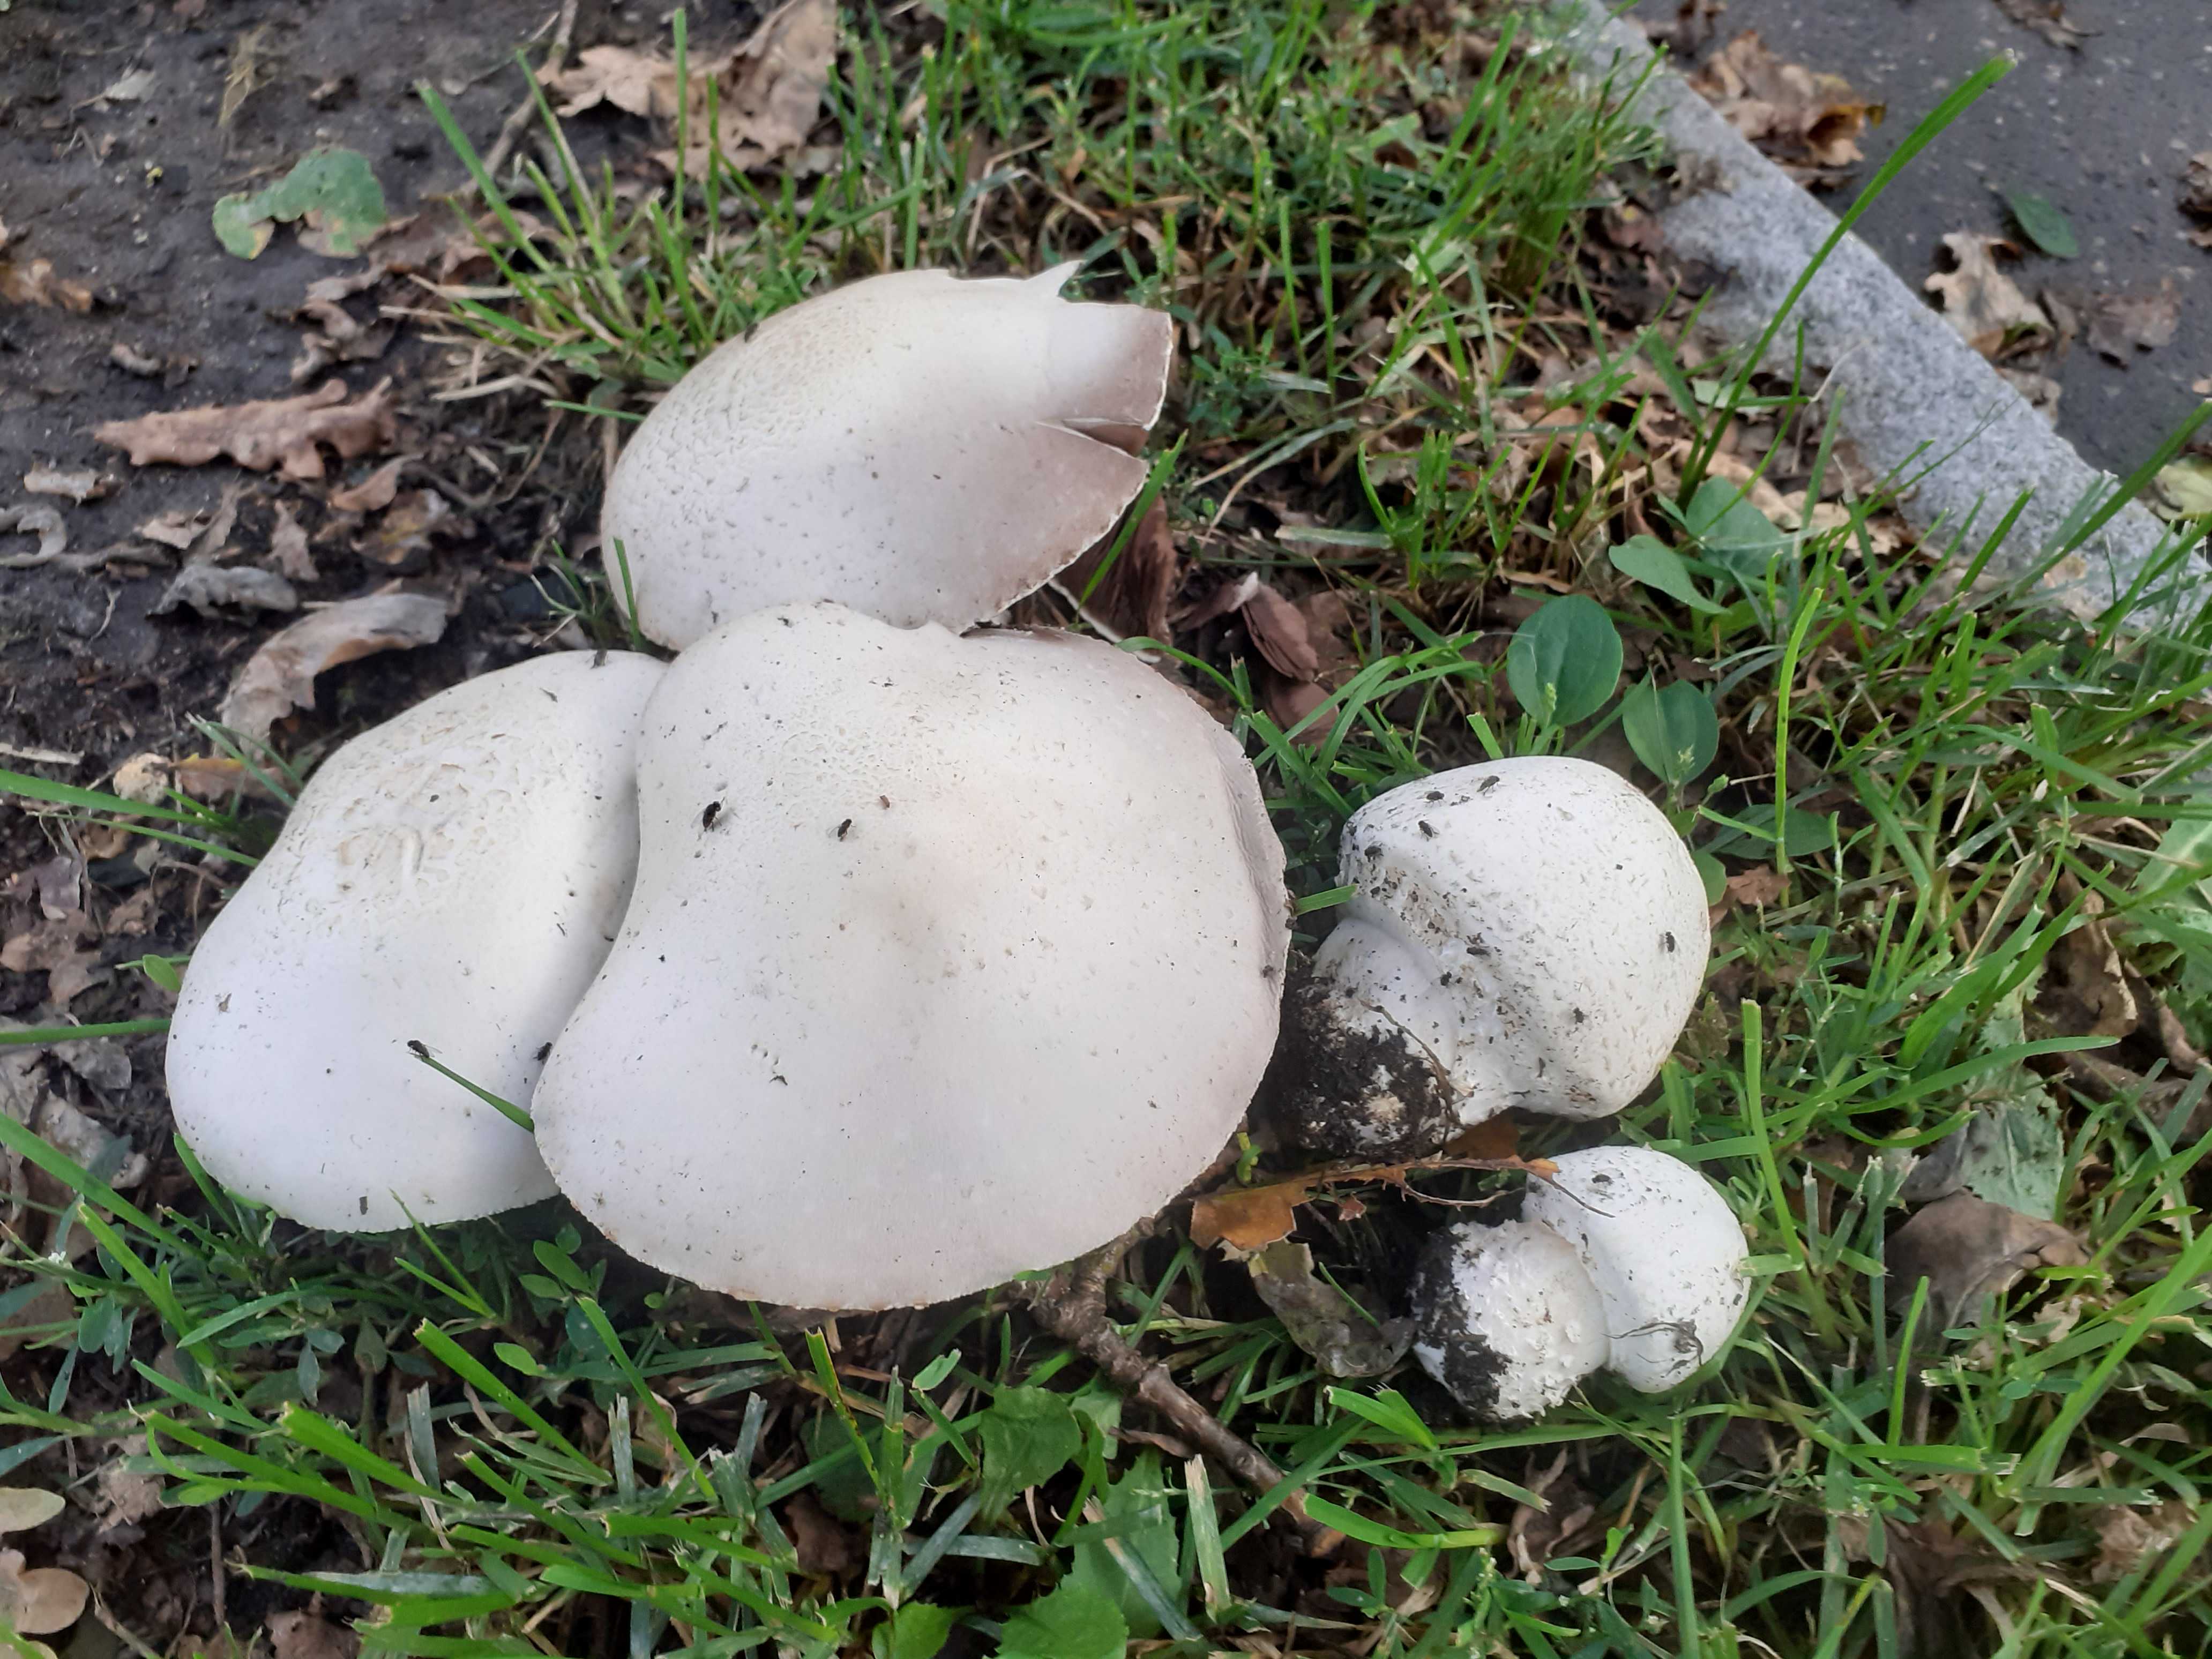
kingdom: Fungi
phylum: Basidiomycota
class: Agaricomycetes
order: Agaricales
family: Agaricaceae
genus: Agaricus
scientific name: Agaricus arvensis
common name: ager-champignon
